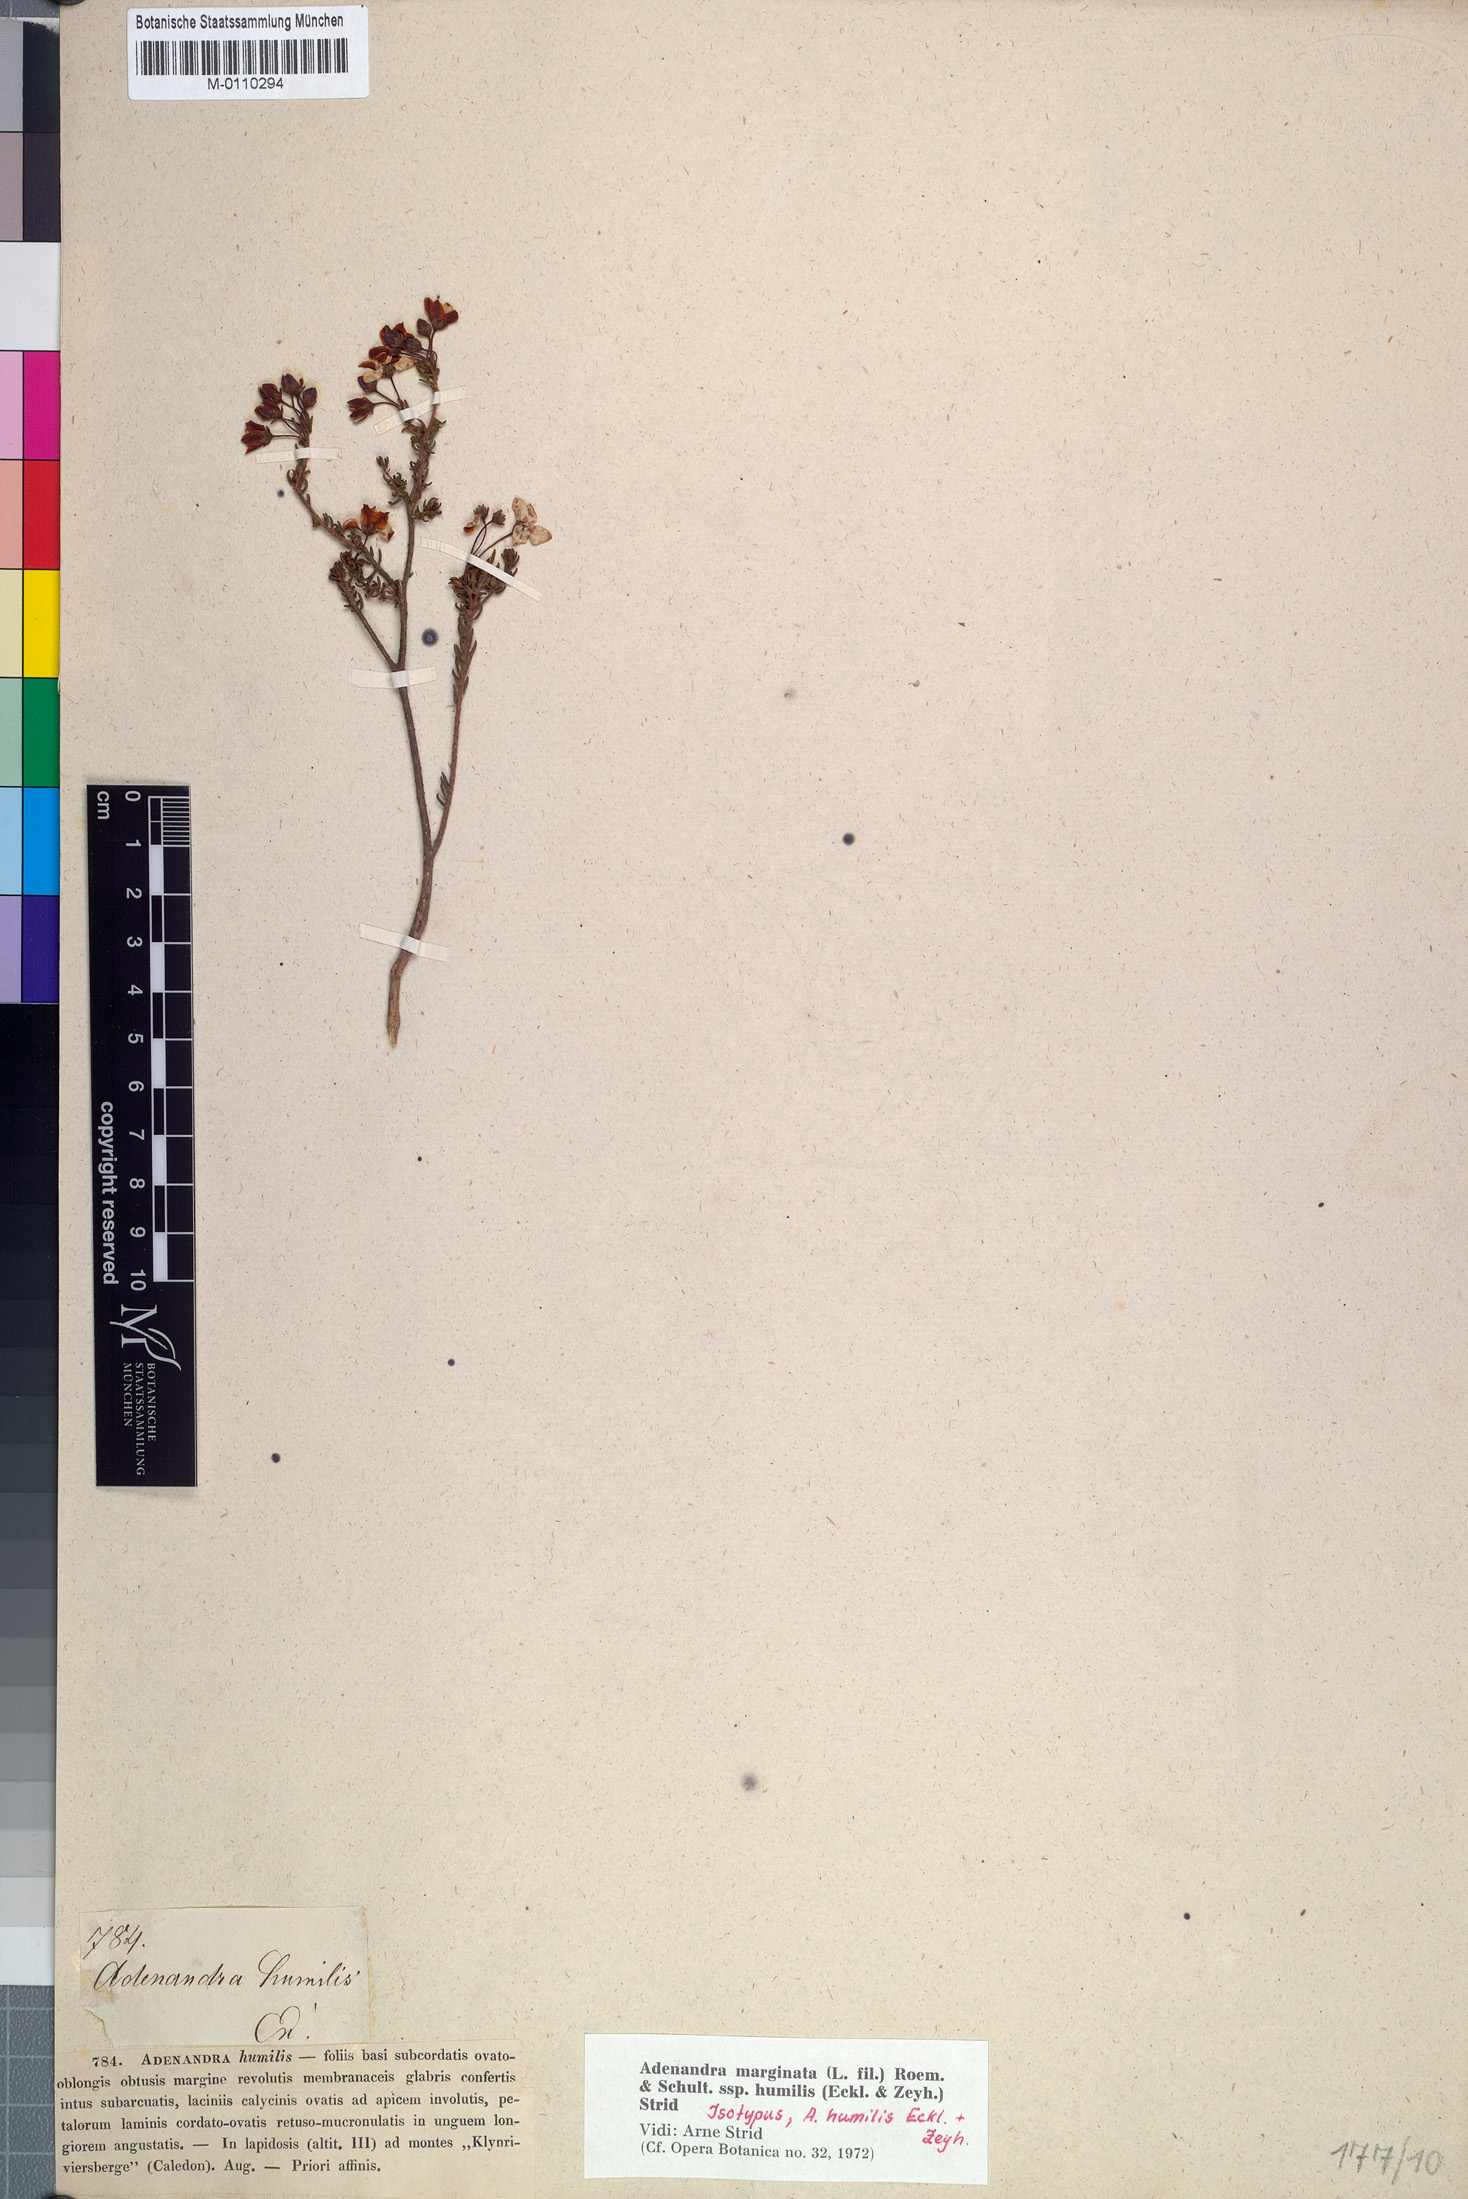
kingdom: Plantae
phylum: Tracheophyta
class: Magnoliopsida
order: Sapindales
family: Rutaceae
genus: Adenandra
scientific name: Adenandra marginata
